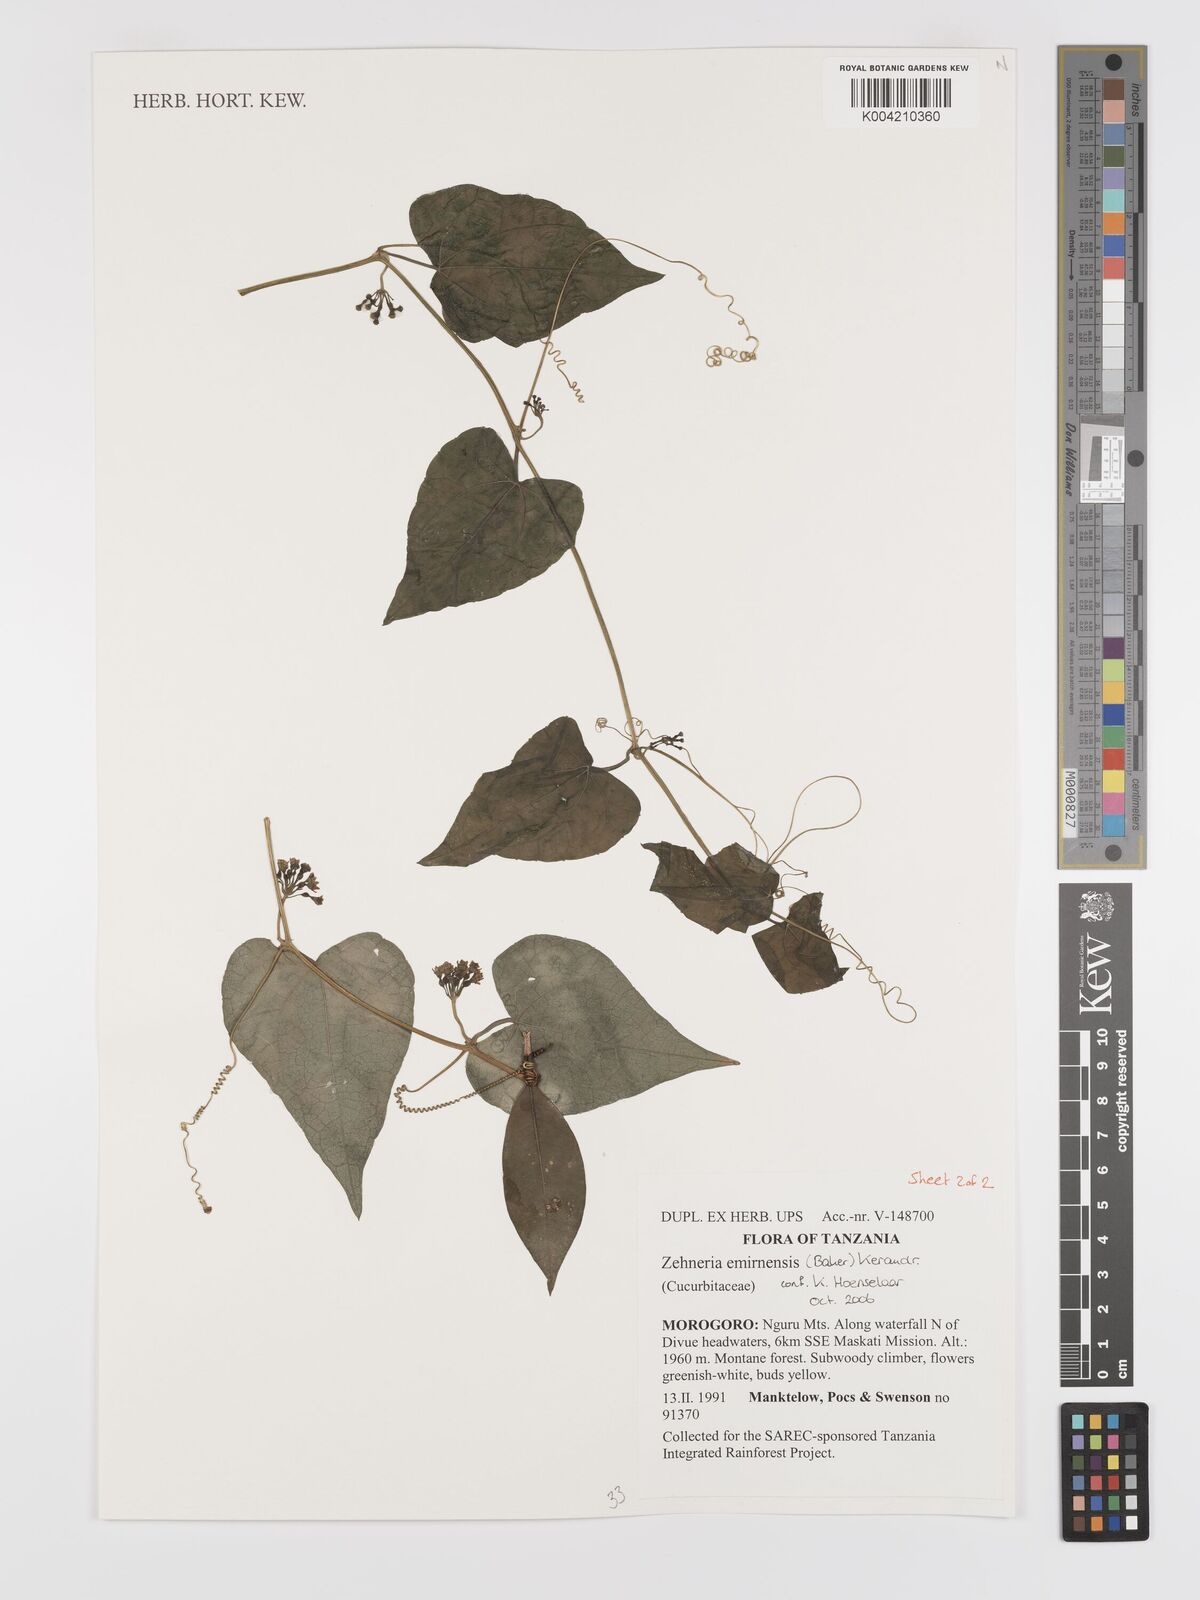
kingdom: Plantae
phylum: Tracheophyta
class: Magnoliopsida
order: Cucurbitales
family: Cucurbitaceae
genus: Zehneria
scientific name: Zehneria emirnensis
